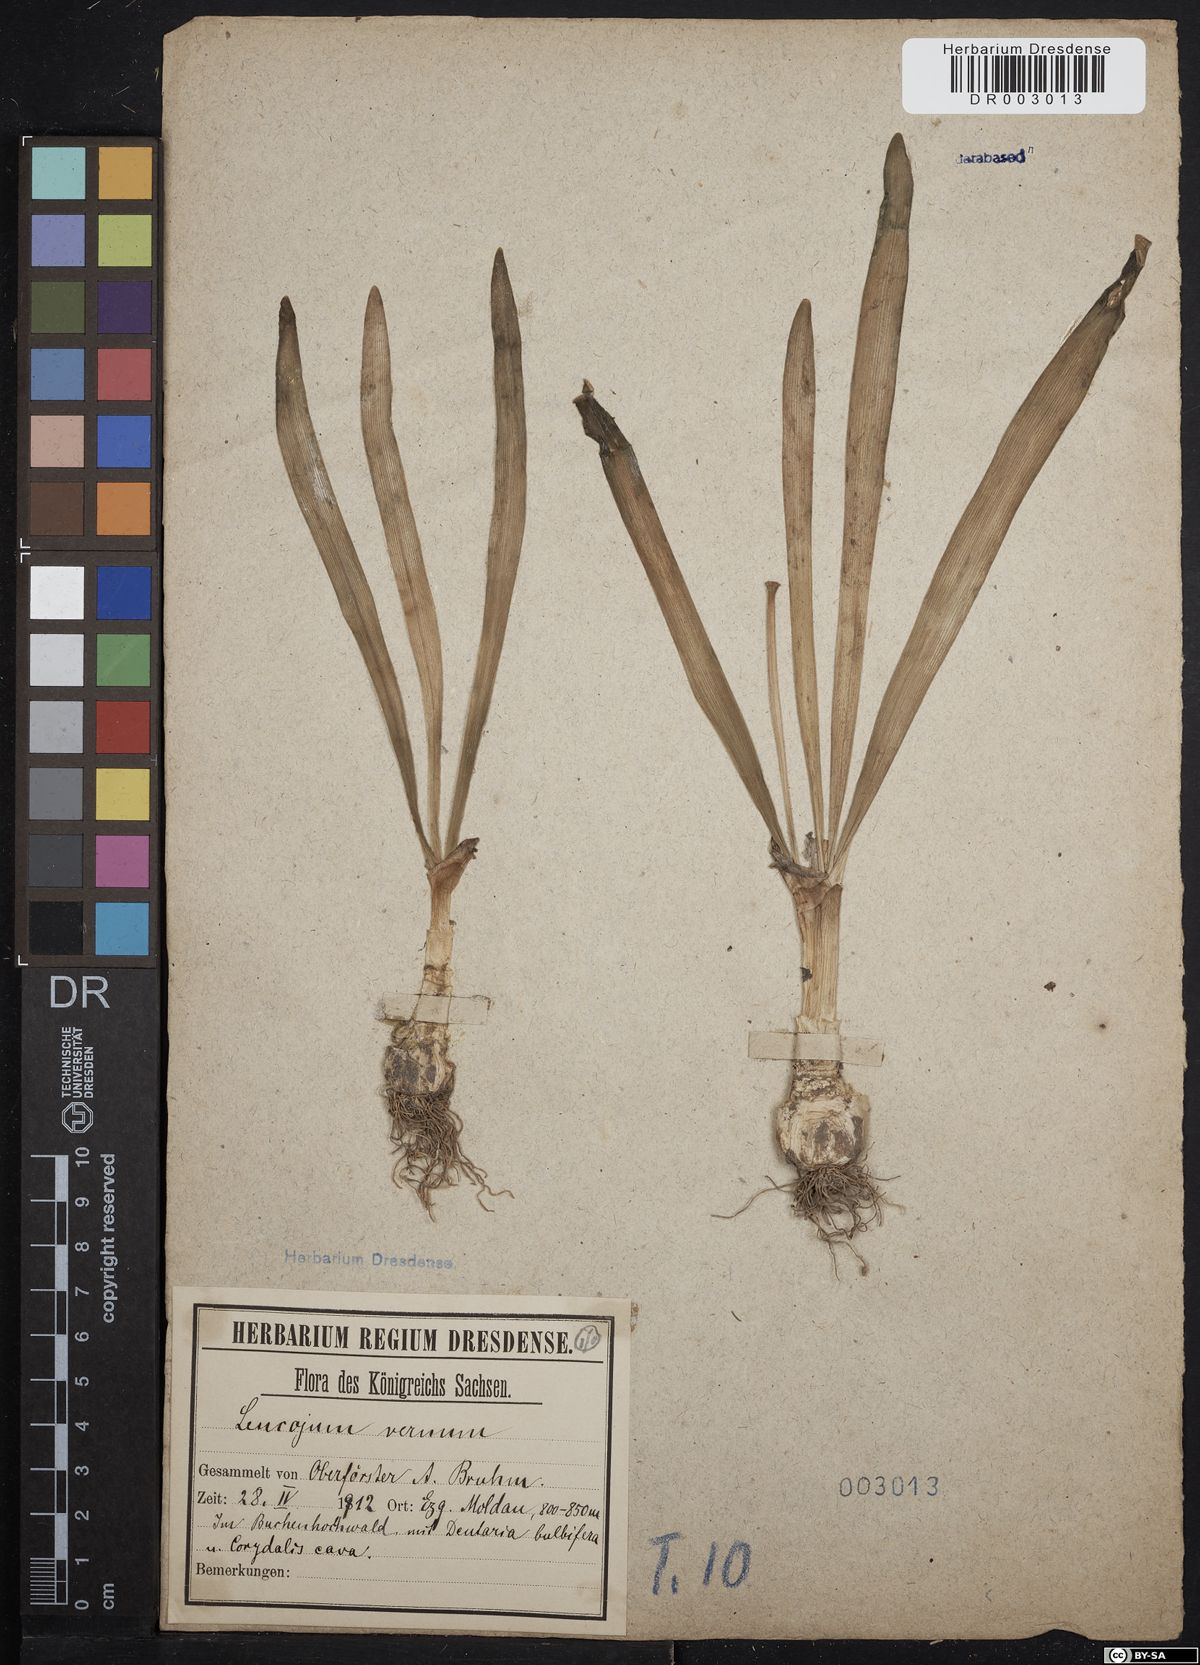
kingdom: Plantae
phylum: Tracheophyta
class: Liliopsida
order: Asparagales
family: Amaryllidaceae
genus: Leucojum
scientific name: Leucojum vernum
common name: Spring snowflake
